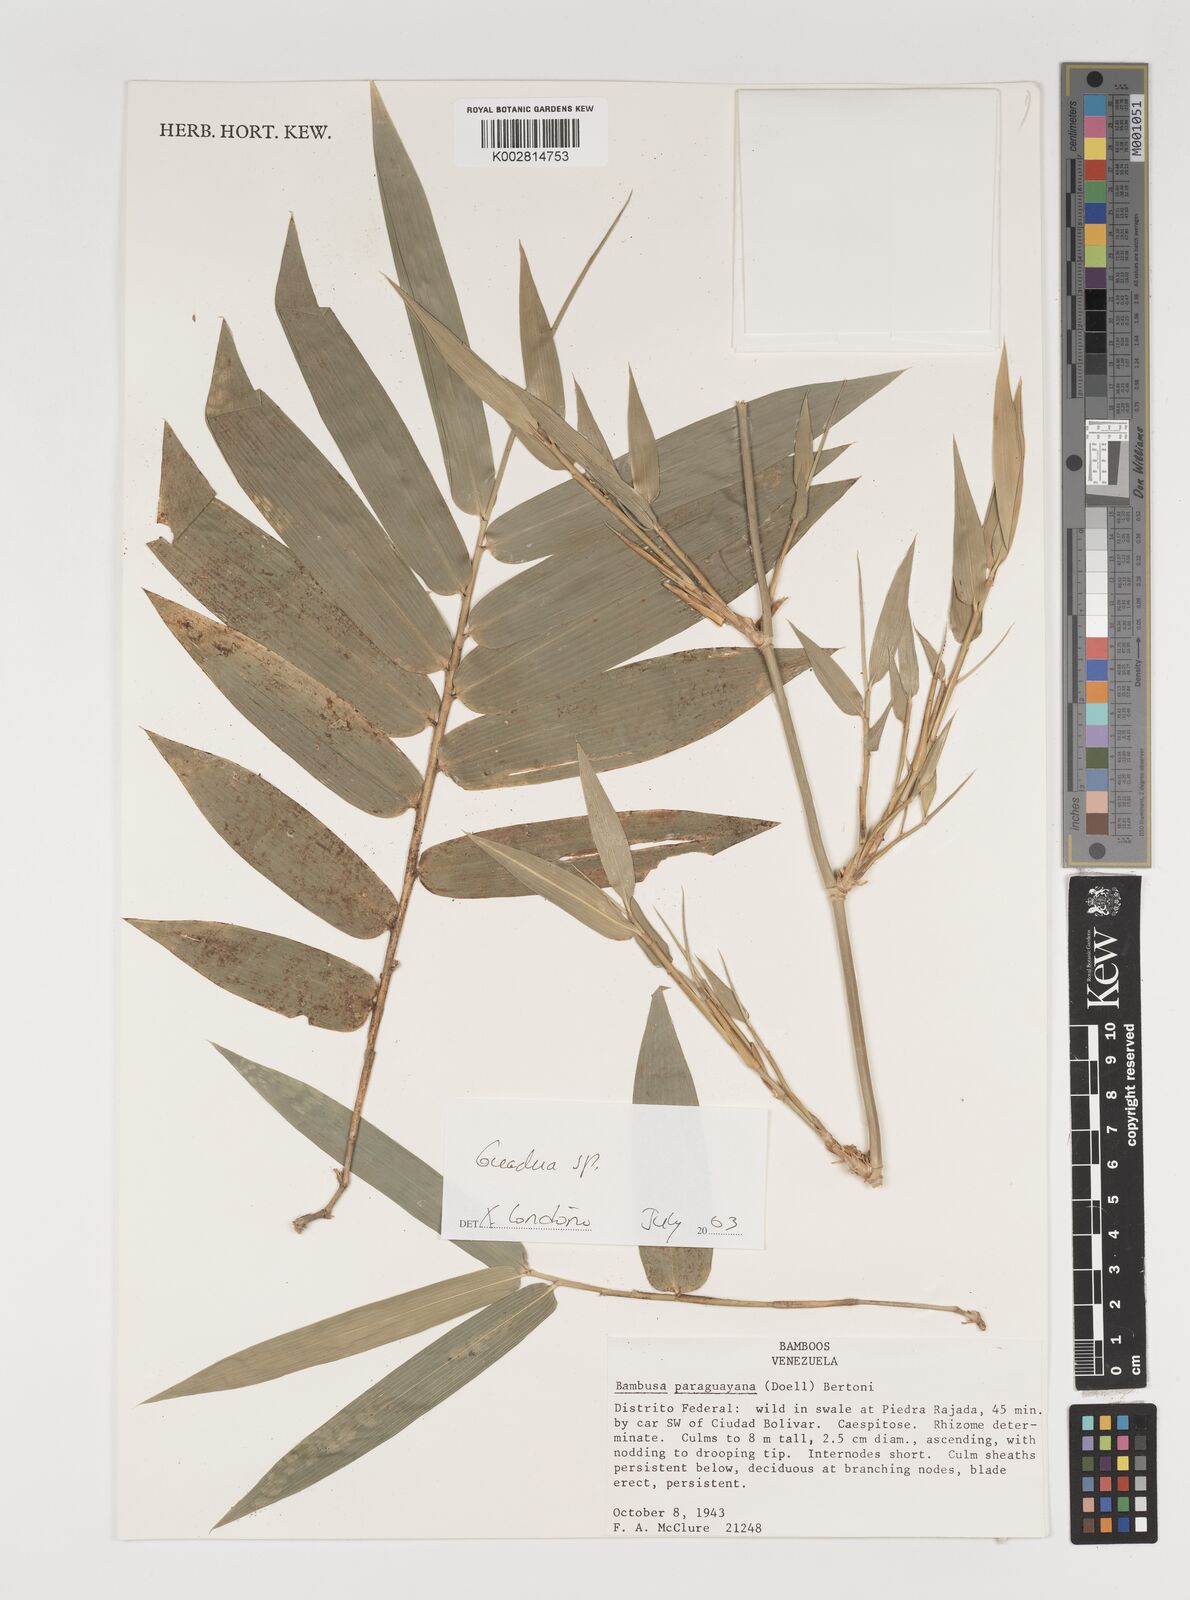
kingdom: Plantae
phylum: Tracheophyta
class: Liliopsida
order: Poales
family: Poaceae
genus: Guadua
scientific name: Guadua
